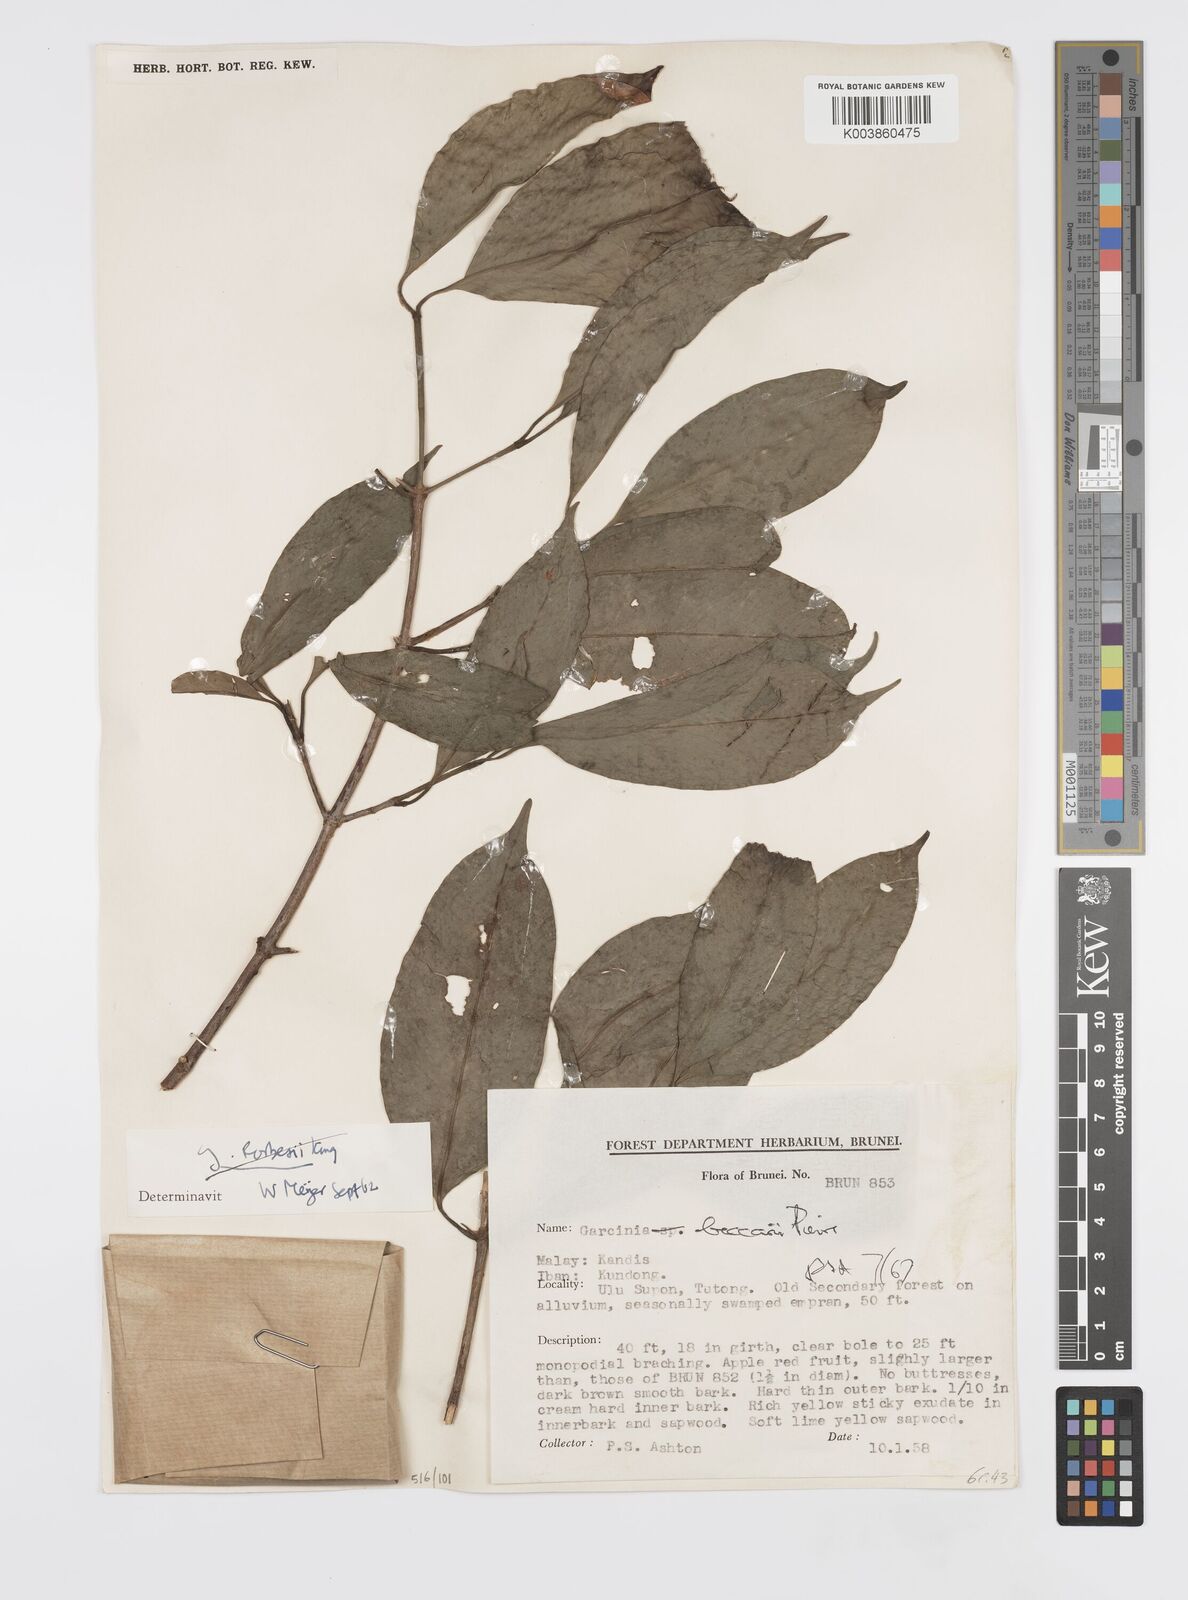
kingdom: Plantae
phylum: Tracheophyta
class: Magnoliopsida
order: Malpighiales
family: Clusiaceae
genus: Garcinia
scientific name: Garcinia beccarii
